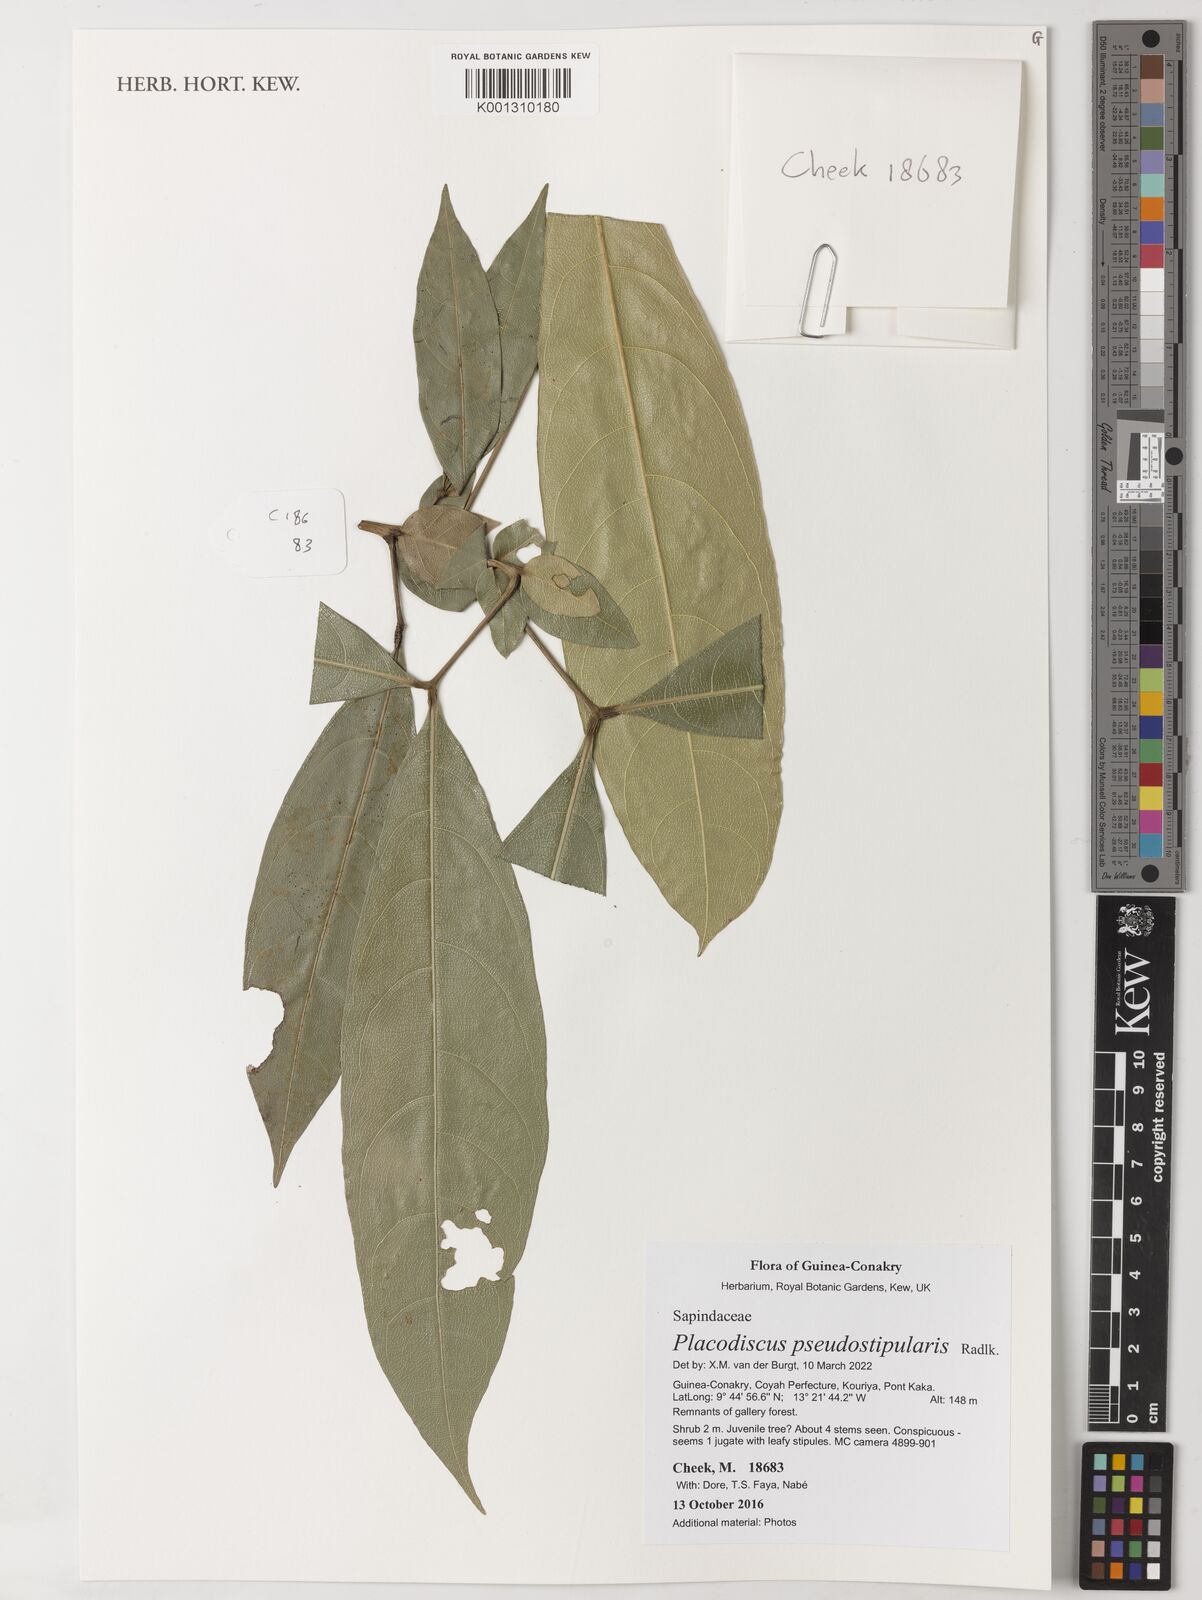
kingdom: Plantae
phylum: Tracheophyta
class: Magnoliopsida
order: Sapindales
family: Sapindaceae
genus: Placodiscus
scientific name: Placodiscus pseudostipularis
